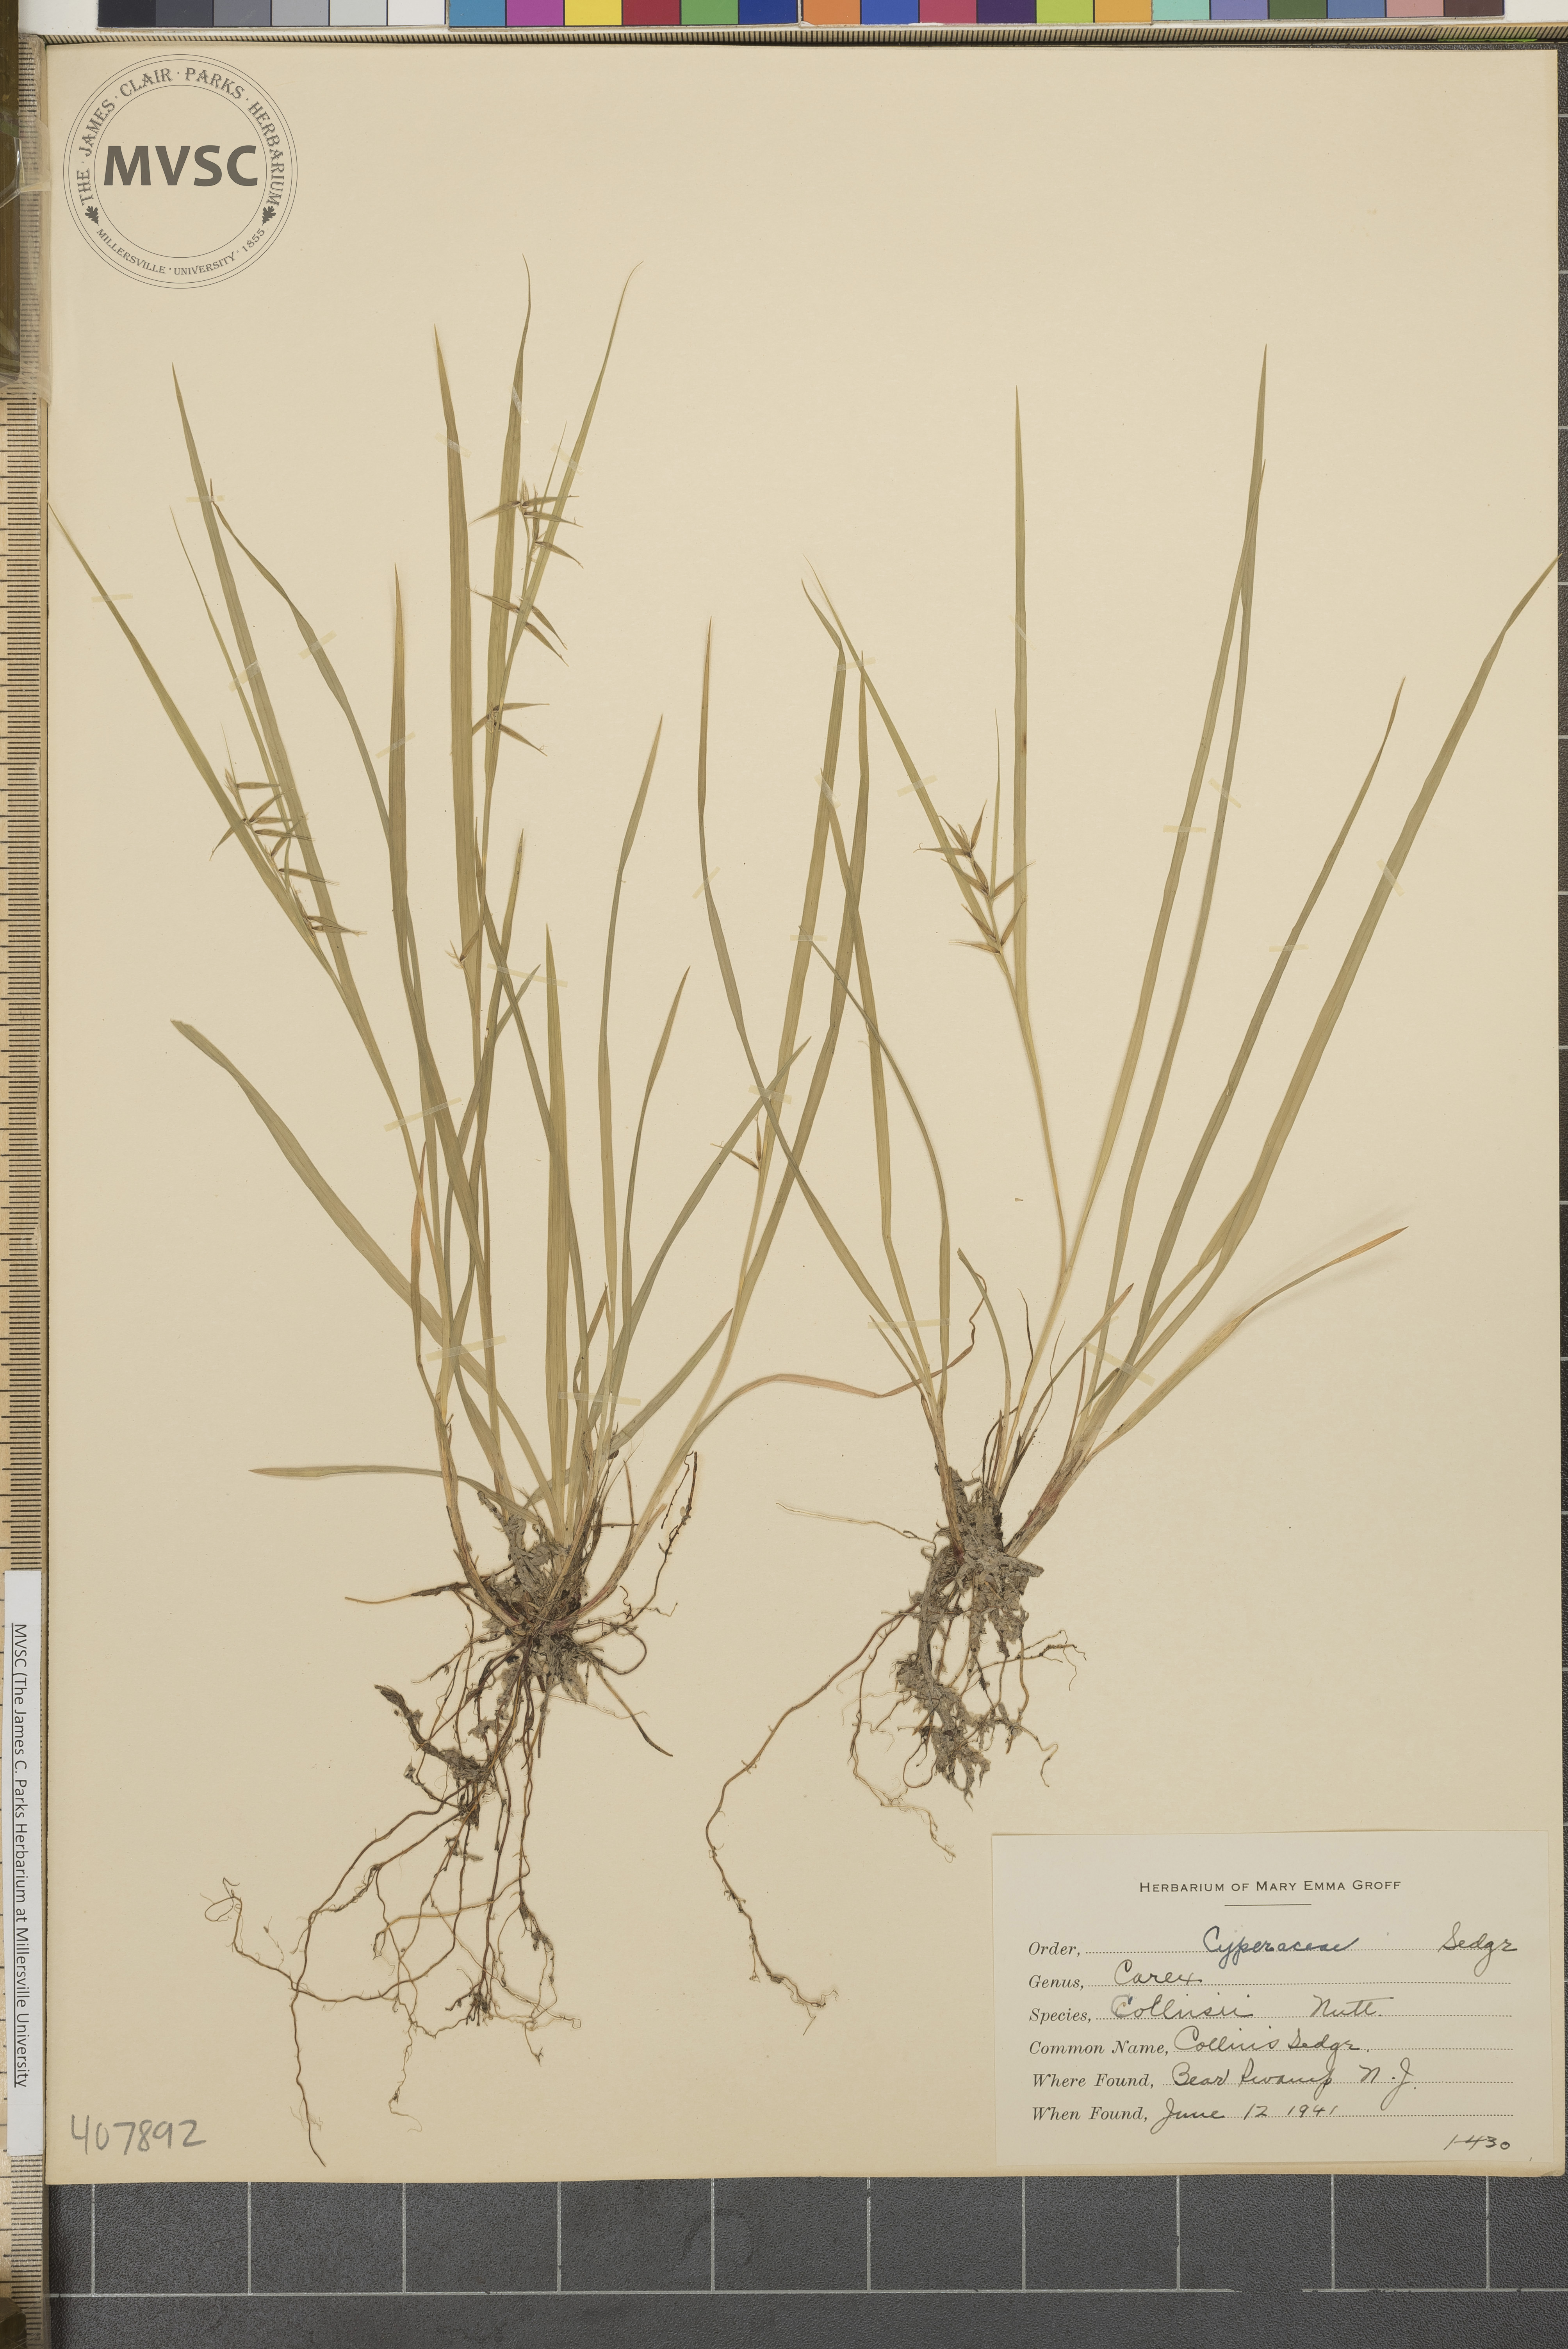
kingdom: Plantae
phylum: Tracheophyta
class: Liliopsida
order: Poales
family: Cyperaceae
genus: Carex
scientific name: Carex collinsii
